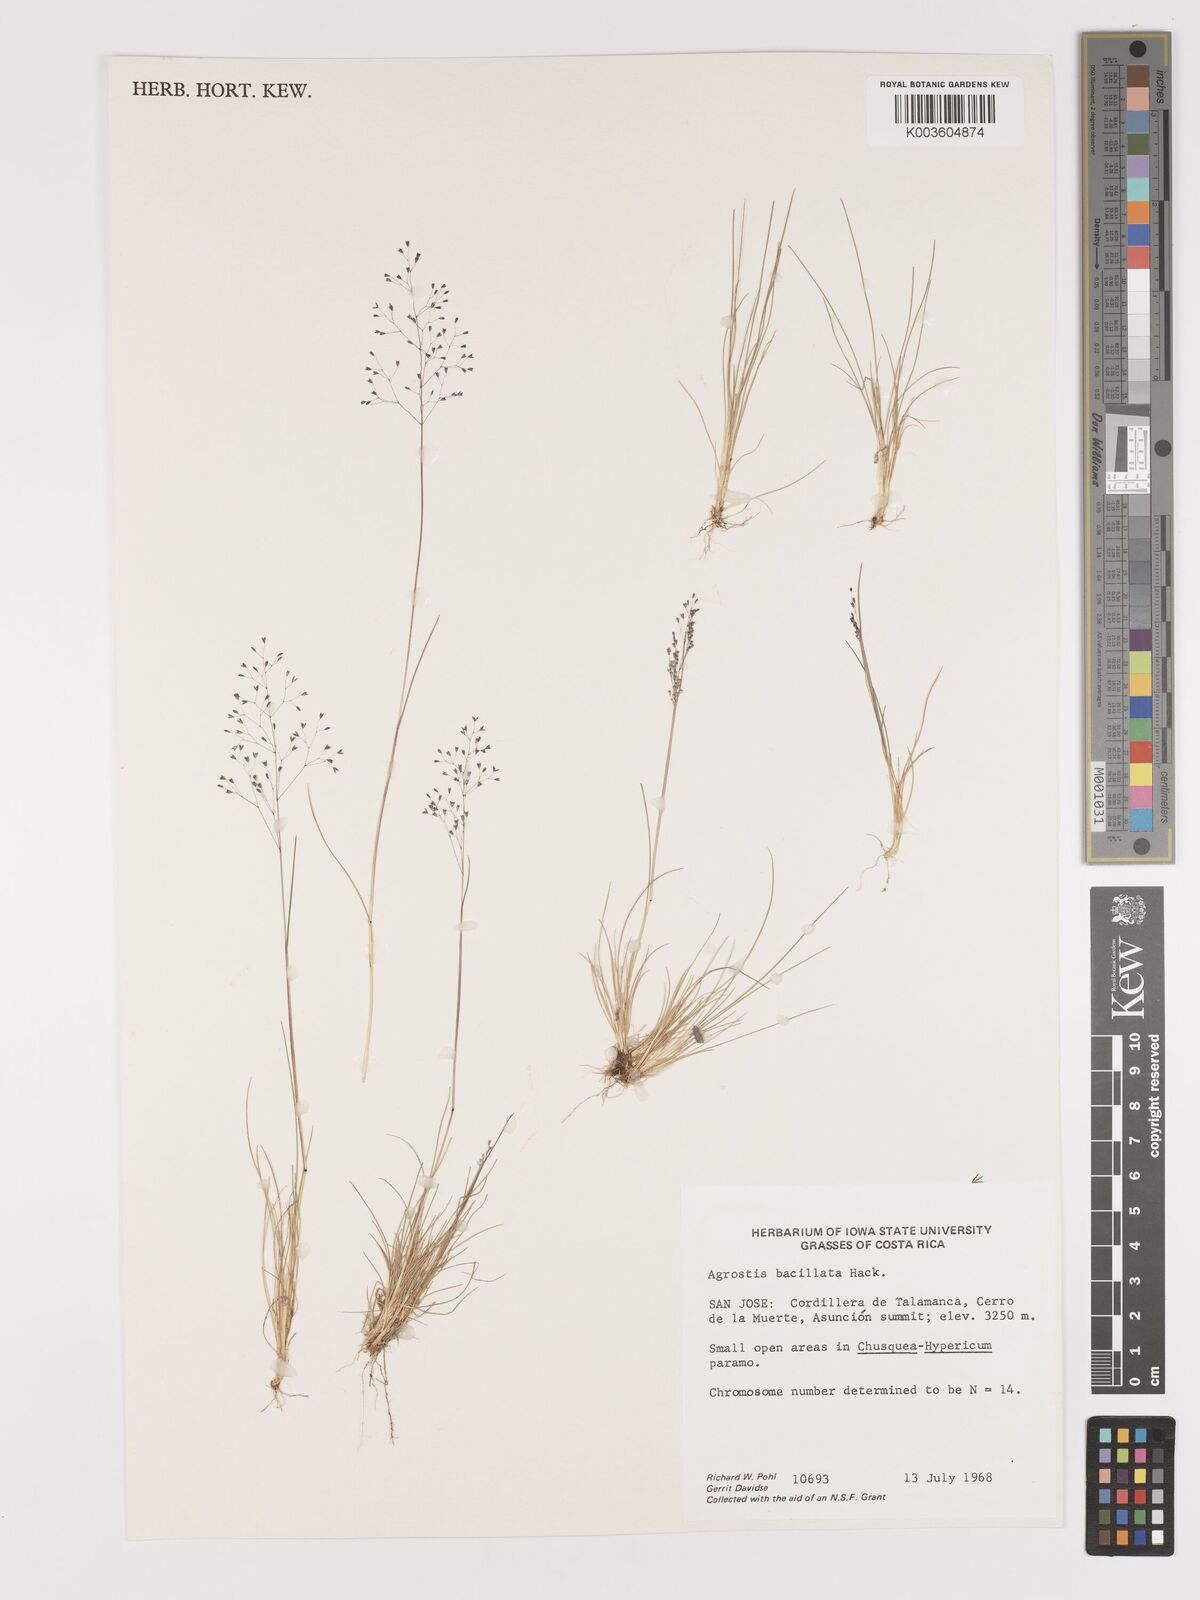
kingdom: Plantae
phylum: Tracheophyta
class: Liliopsida
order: Poales
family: Poaceae
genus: Podagrostis
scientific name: Podagrostis bacillata
